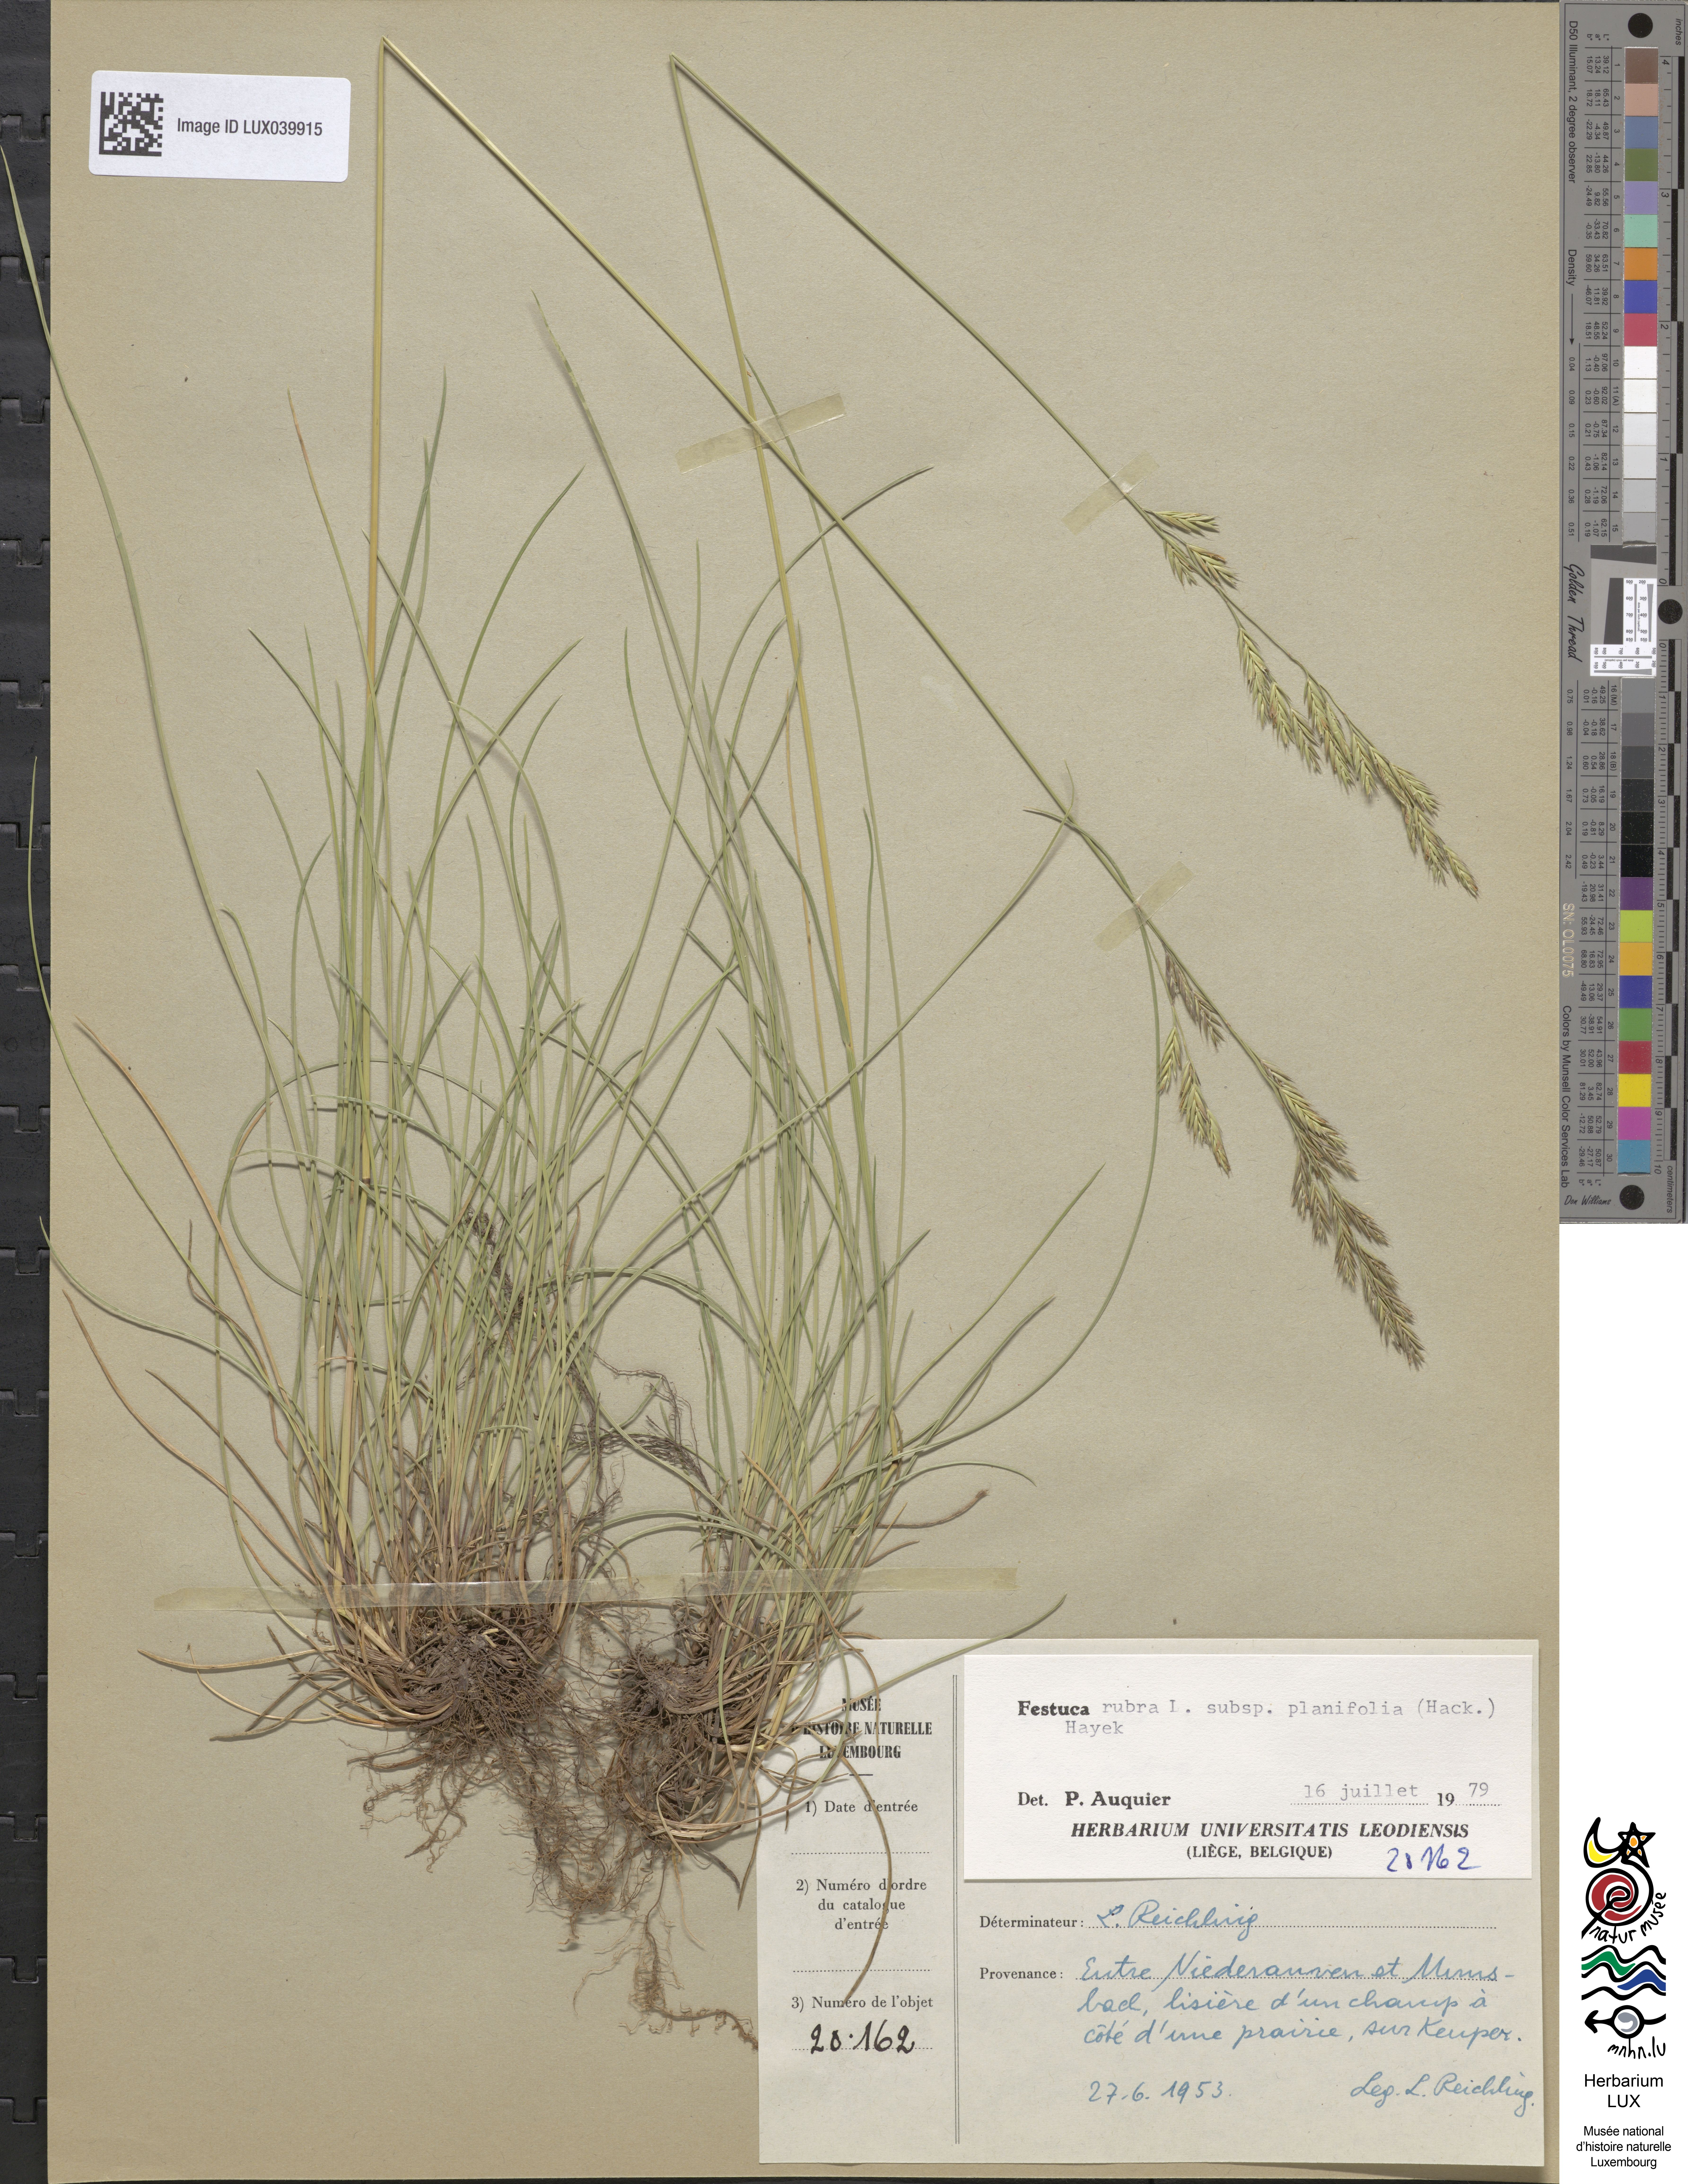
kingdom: Plantae
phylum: Tracheophyta
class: Liliopsida
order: Poales
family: Poaceae
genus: Festuca
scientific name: Festuca rubra
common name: Red fescue
